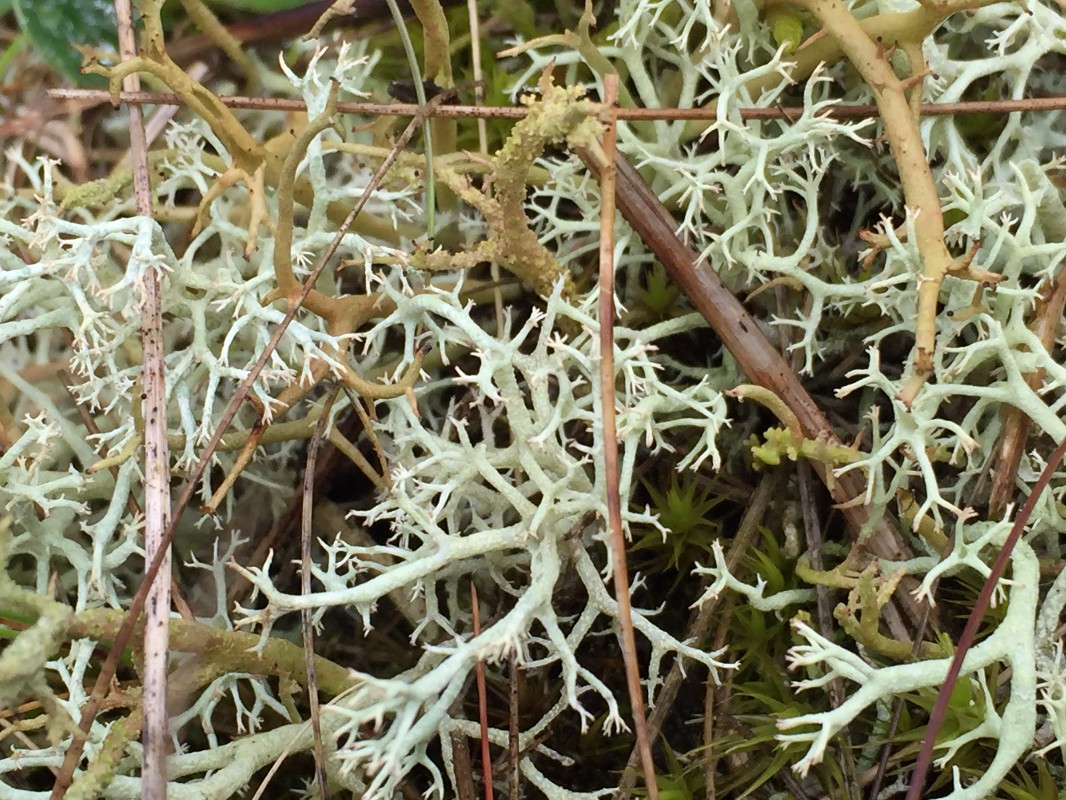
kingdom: Fungi
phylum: Ascomycota
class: Lecanoromycetes
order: Lecanorales
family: Cladoniaceae
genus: Cladonia
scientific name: Cladonia portentosa
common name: hede-rensdyrlav
